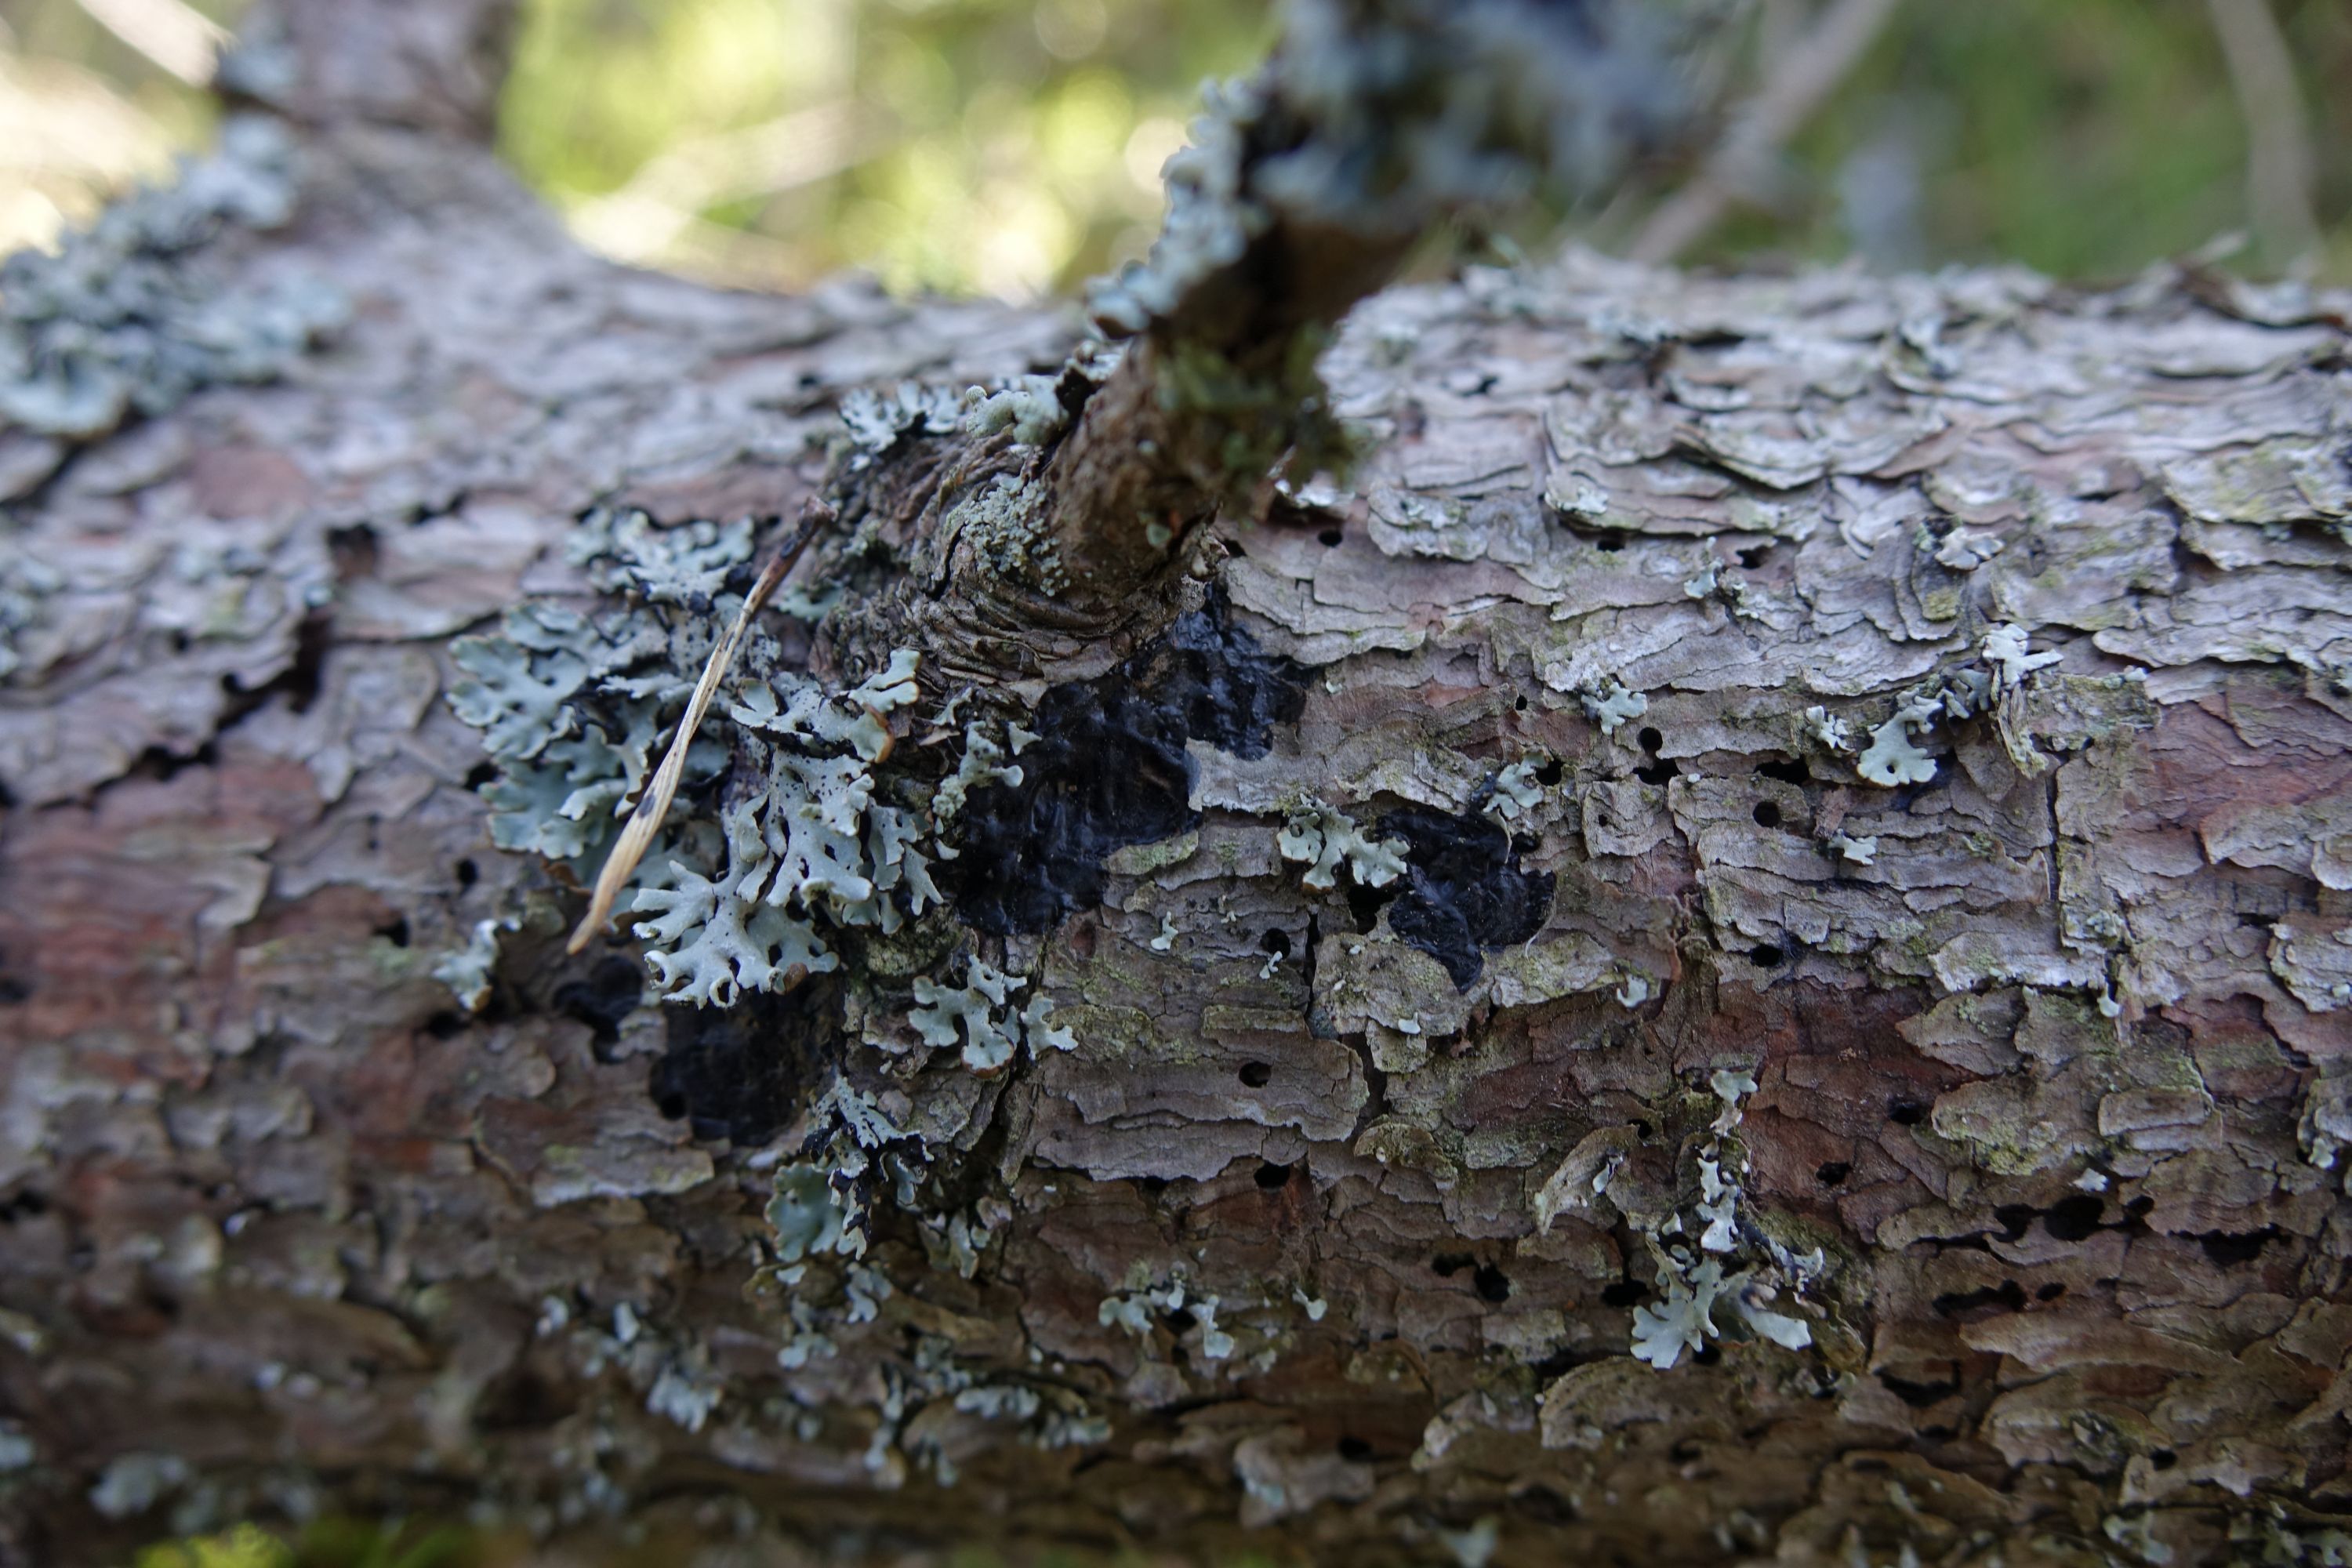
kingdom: Fungi
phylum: Basidiomycota
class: Agaricomycetes
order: Auriculariales
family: Auriculariaceae
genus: Exidia
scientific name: Exidia pithya
